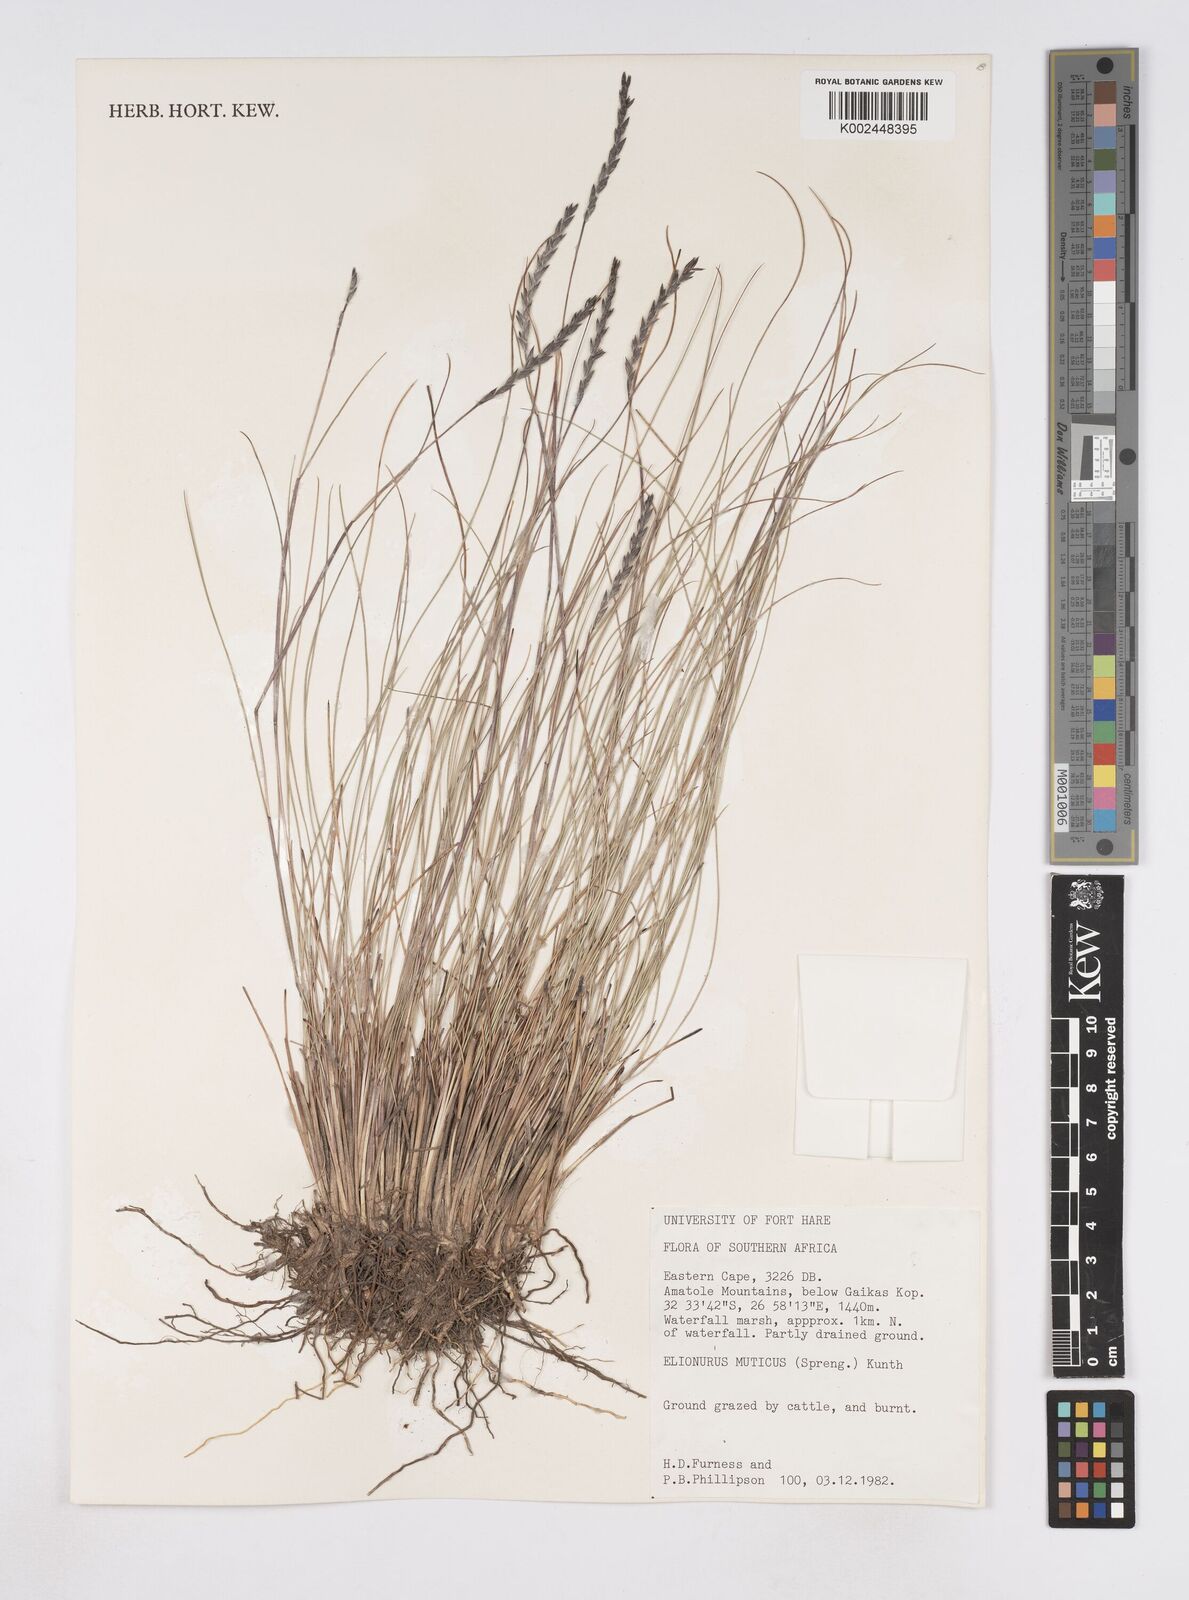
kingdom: Plantae
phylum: Tracheophyta
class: Liliopsida
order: Poales
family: Poaceae
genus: Elionurus
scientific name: Elionurus muticus
